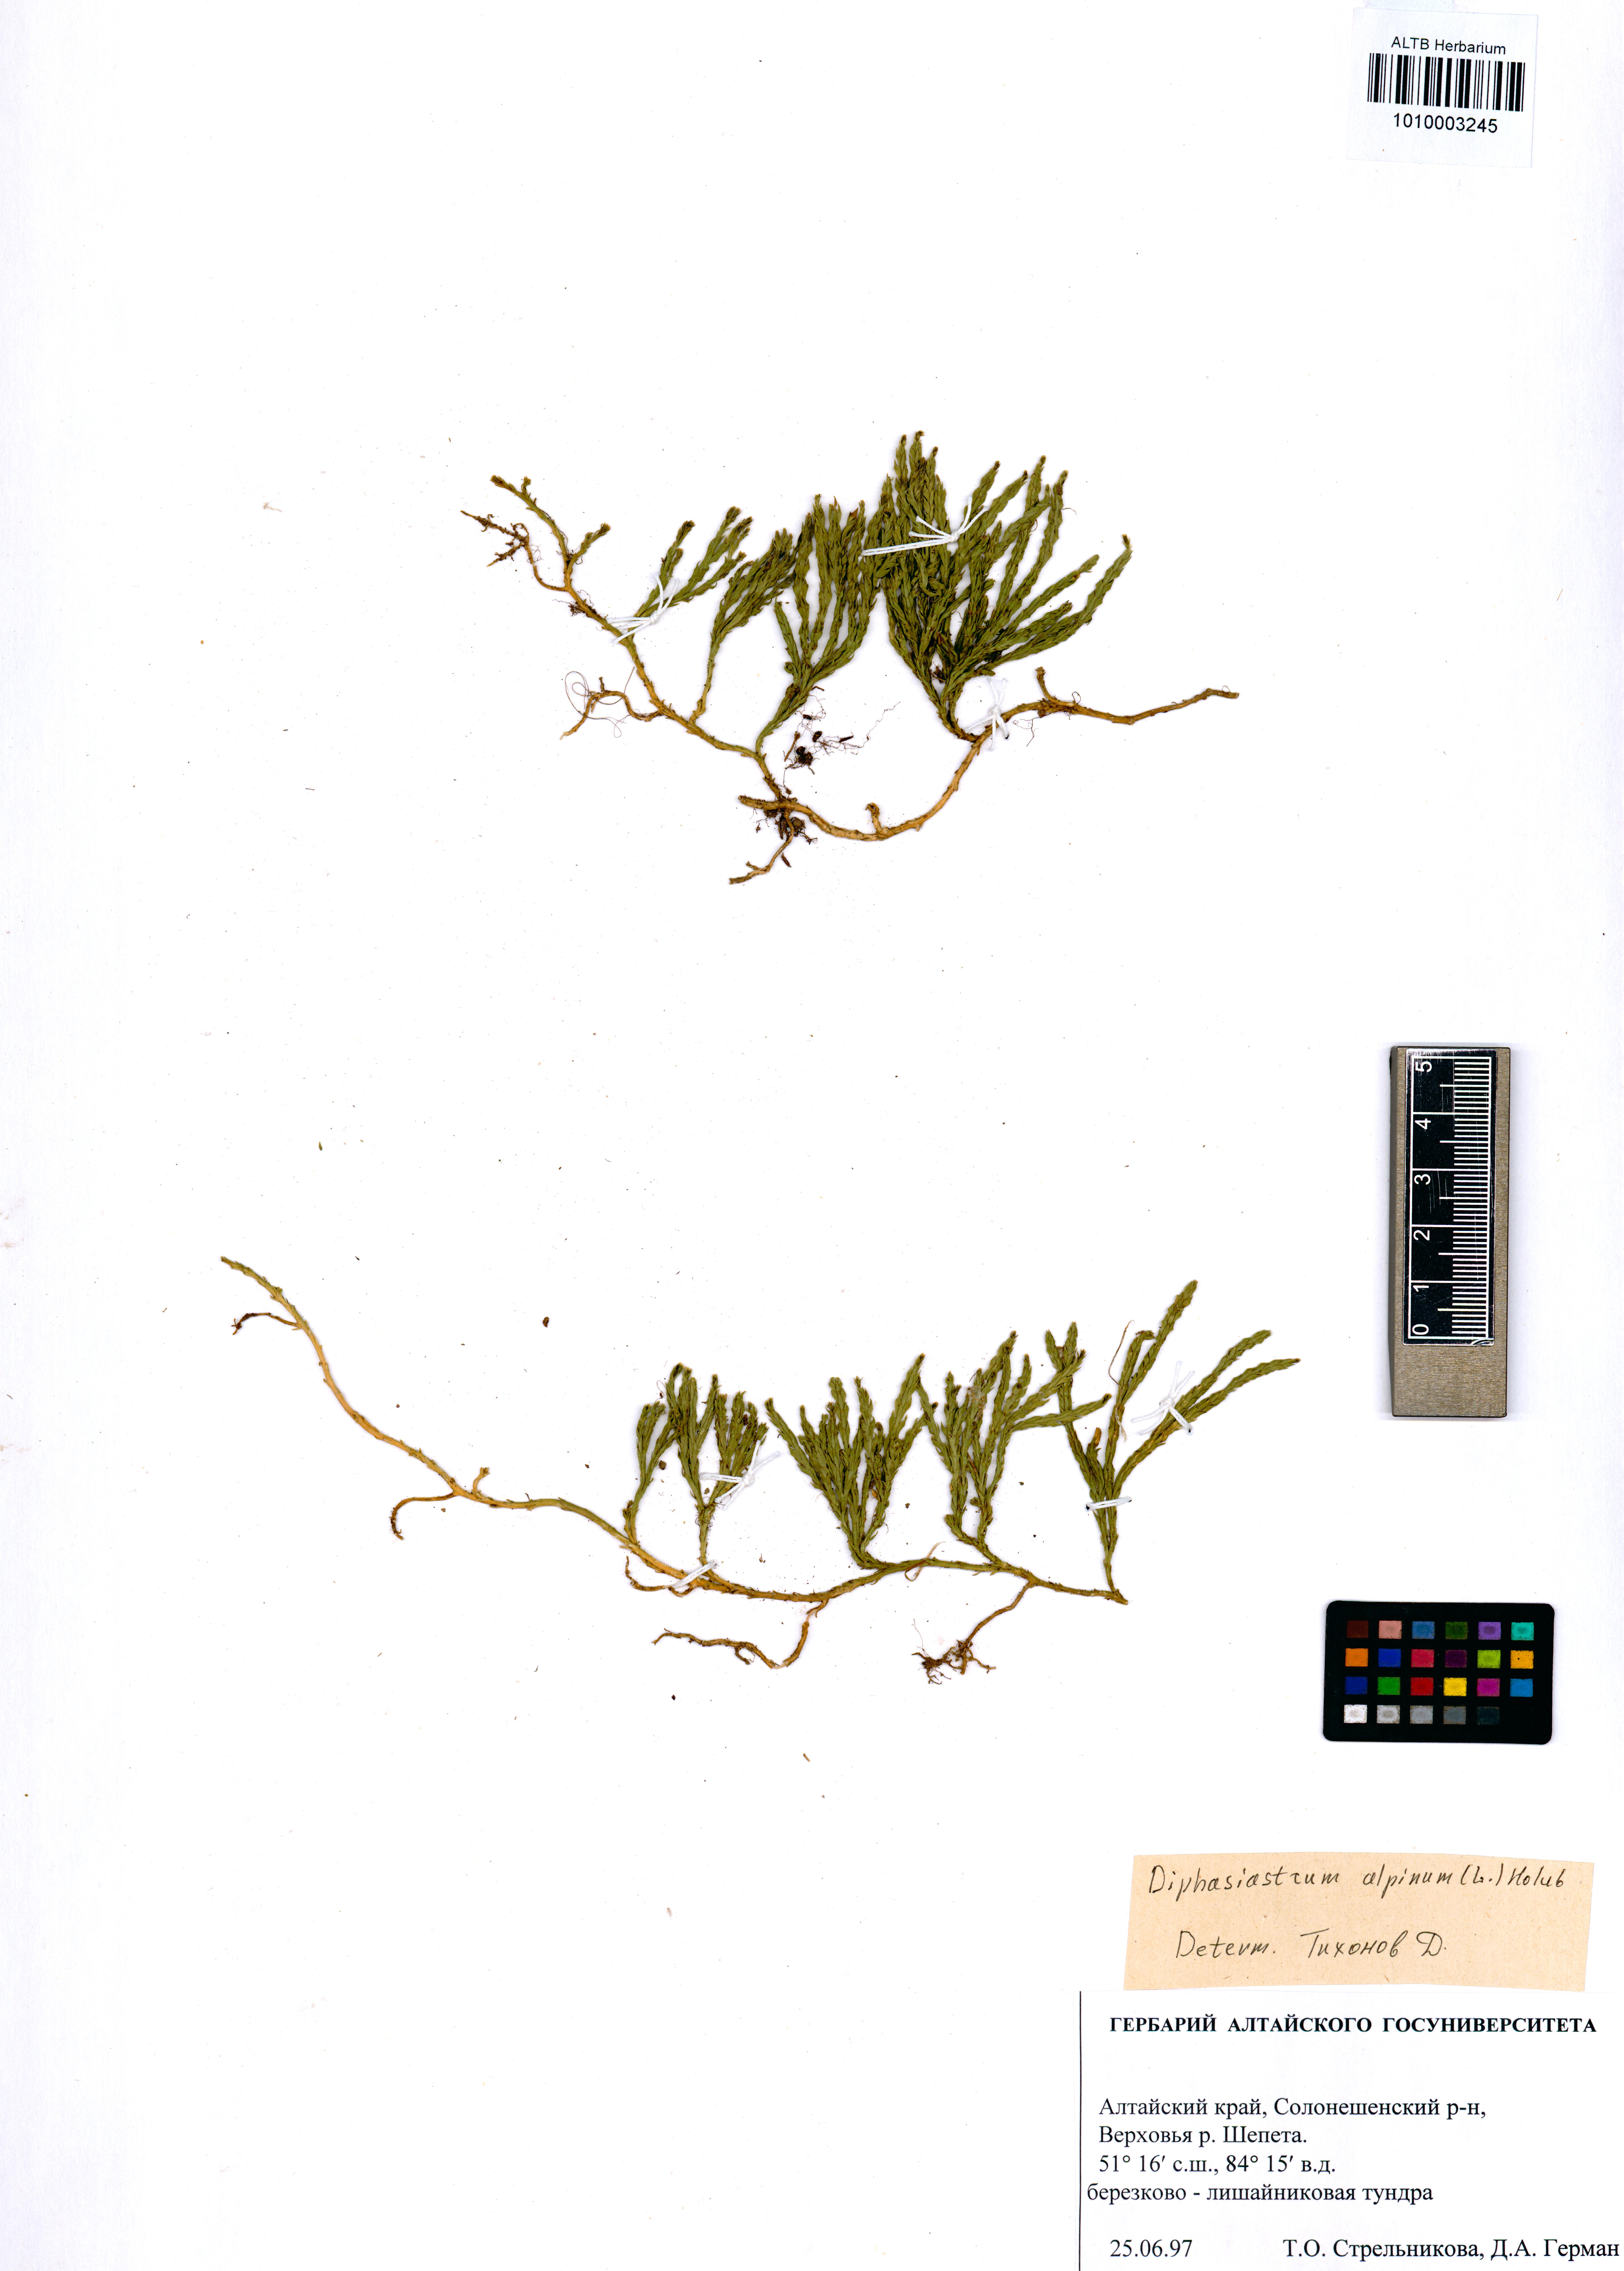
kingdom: Plantae
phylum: Tracheophyta
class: Lycopodiopsida
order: Lycopodiales
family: Lycopodiaceae
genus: Diphasiastrum
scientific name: Diphasiastrum alpinum
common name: Alpine clubmoss
